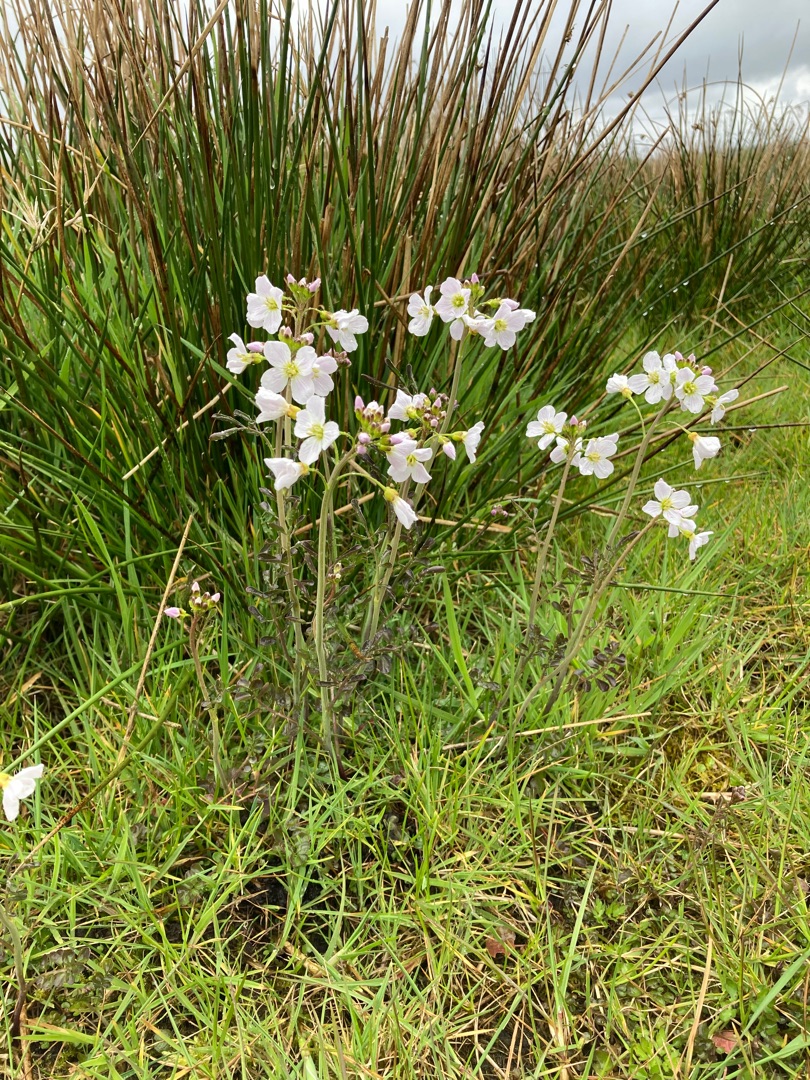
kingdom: Plantae
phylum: Tracheophyta
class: Magnoliopsida
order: Brassicales
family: Brassicaceae
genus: Cardamine
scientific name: Cardamine pratensis
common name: Engkarse
